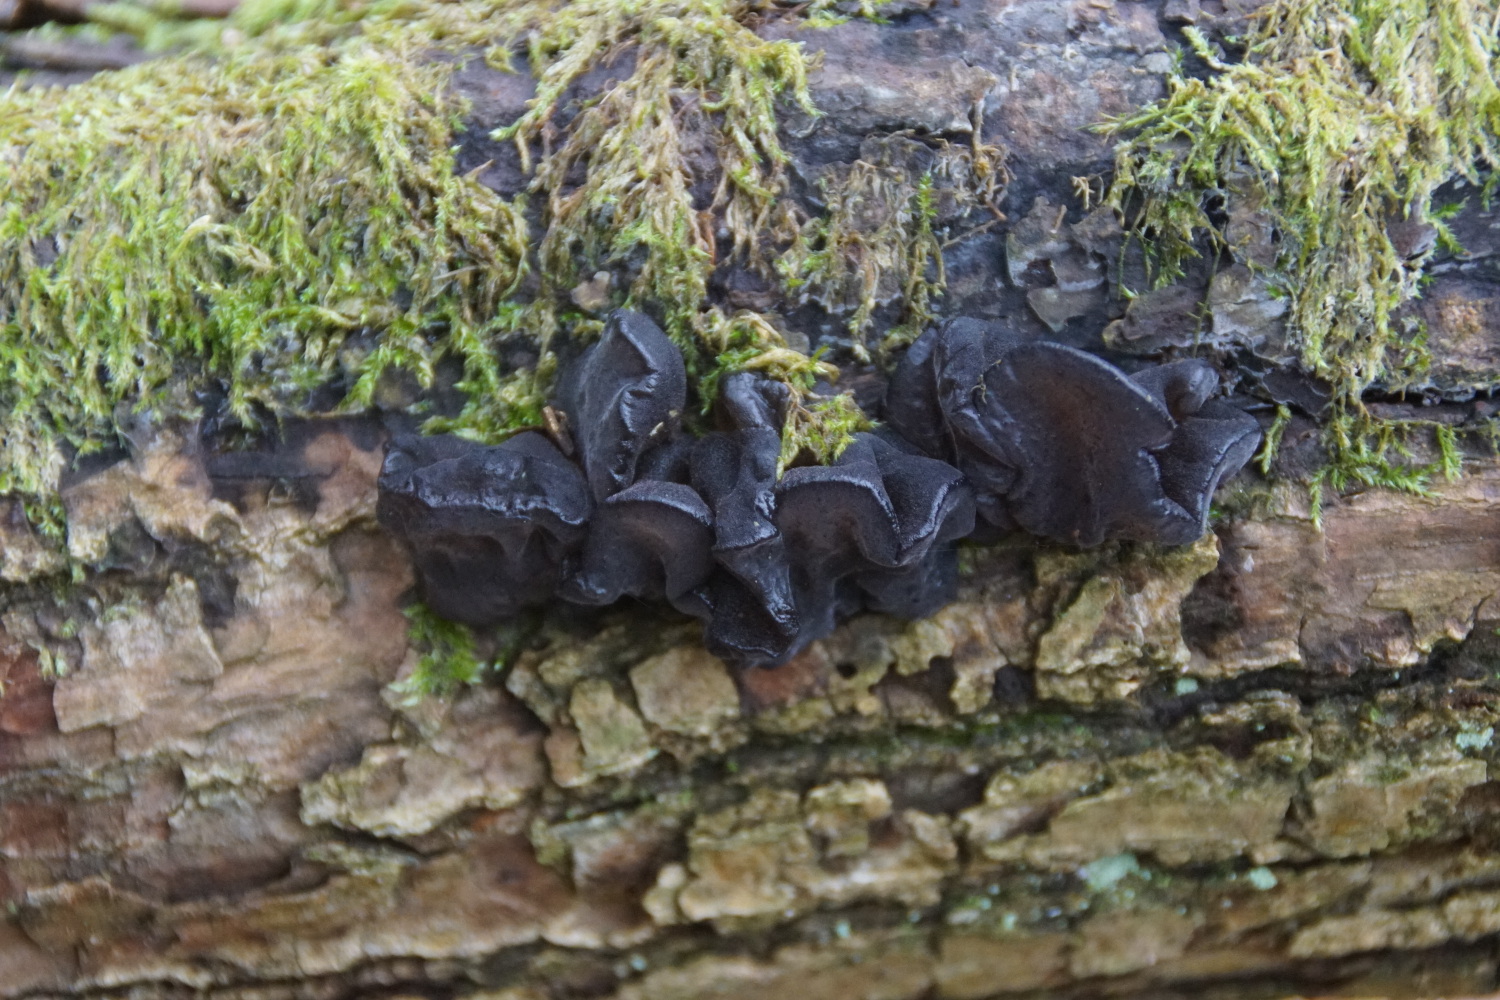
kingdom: Fungi
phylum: Basidiomycota
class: Agaricomycetes
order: Auriculariales
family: Auriculariaceae
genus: Exidia
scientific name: Exidia glandulosa
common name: ege-bævretop
